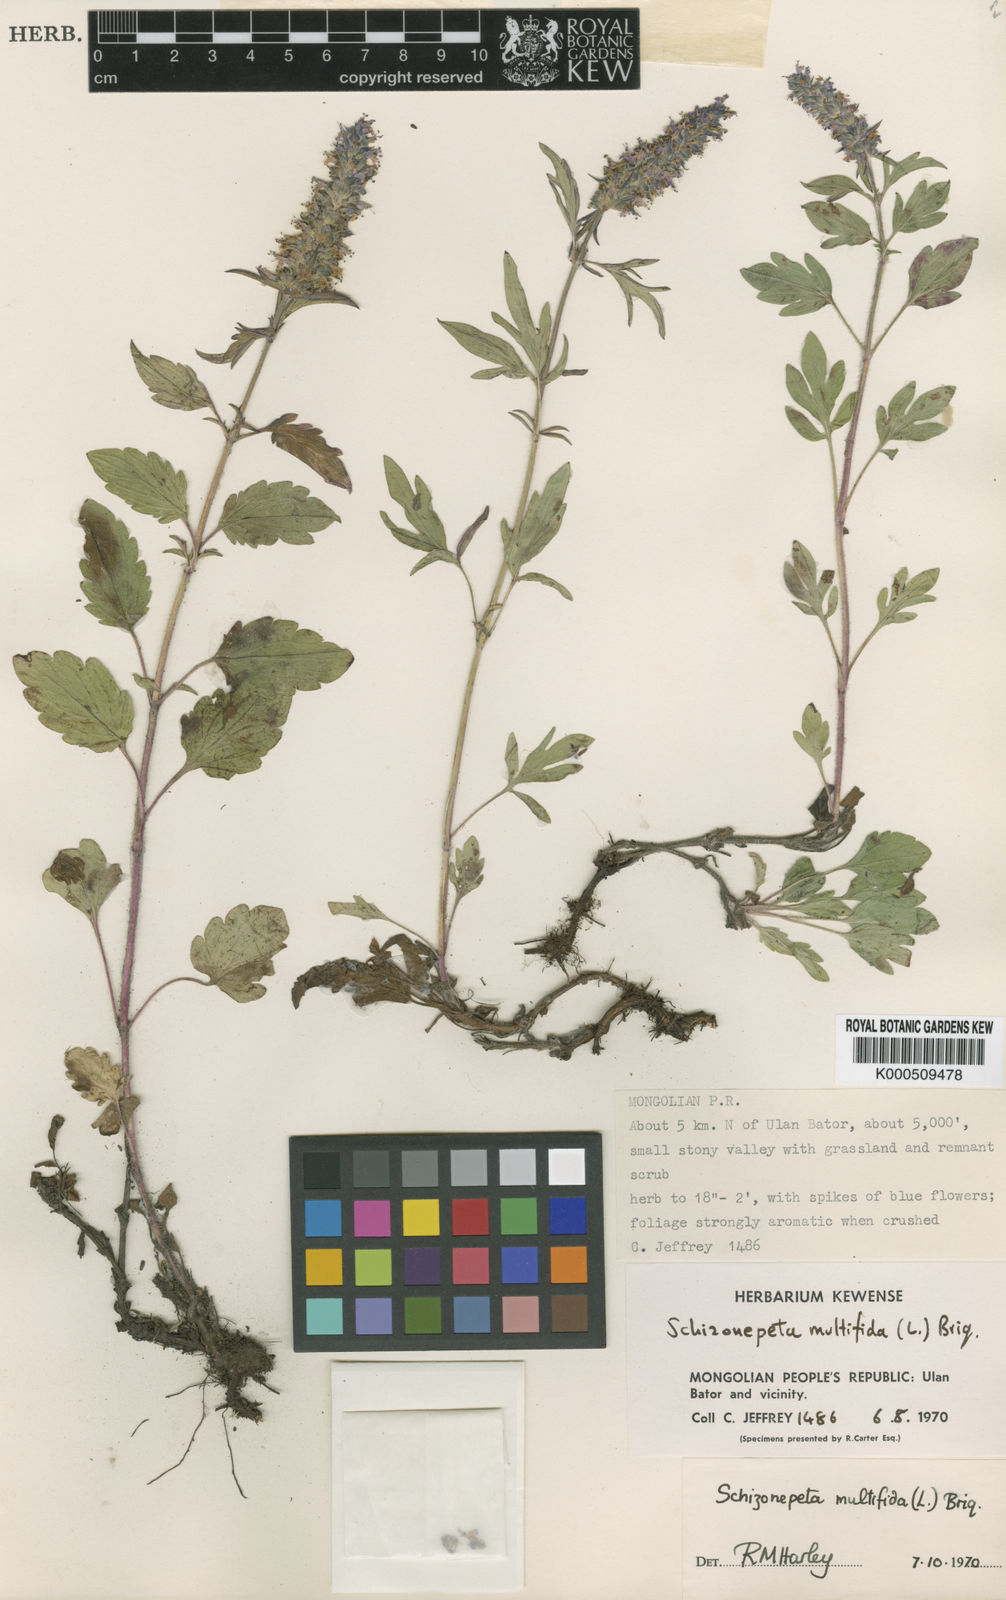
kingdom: Plantae
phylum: Tracheophyta
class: Magnoliopsida
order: Lamiales
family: Lamiaceae
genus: Nepeta
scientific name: Nepeta
